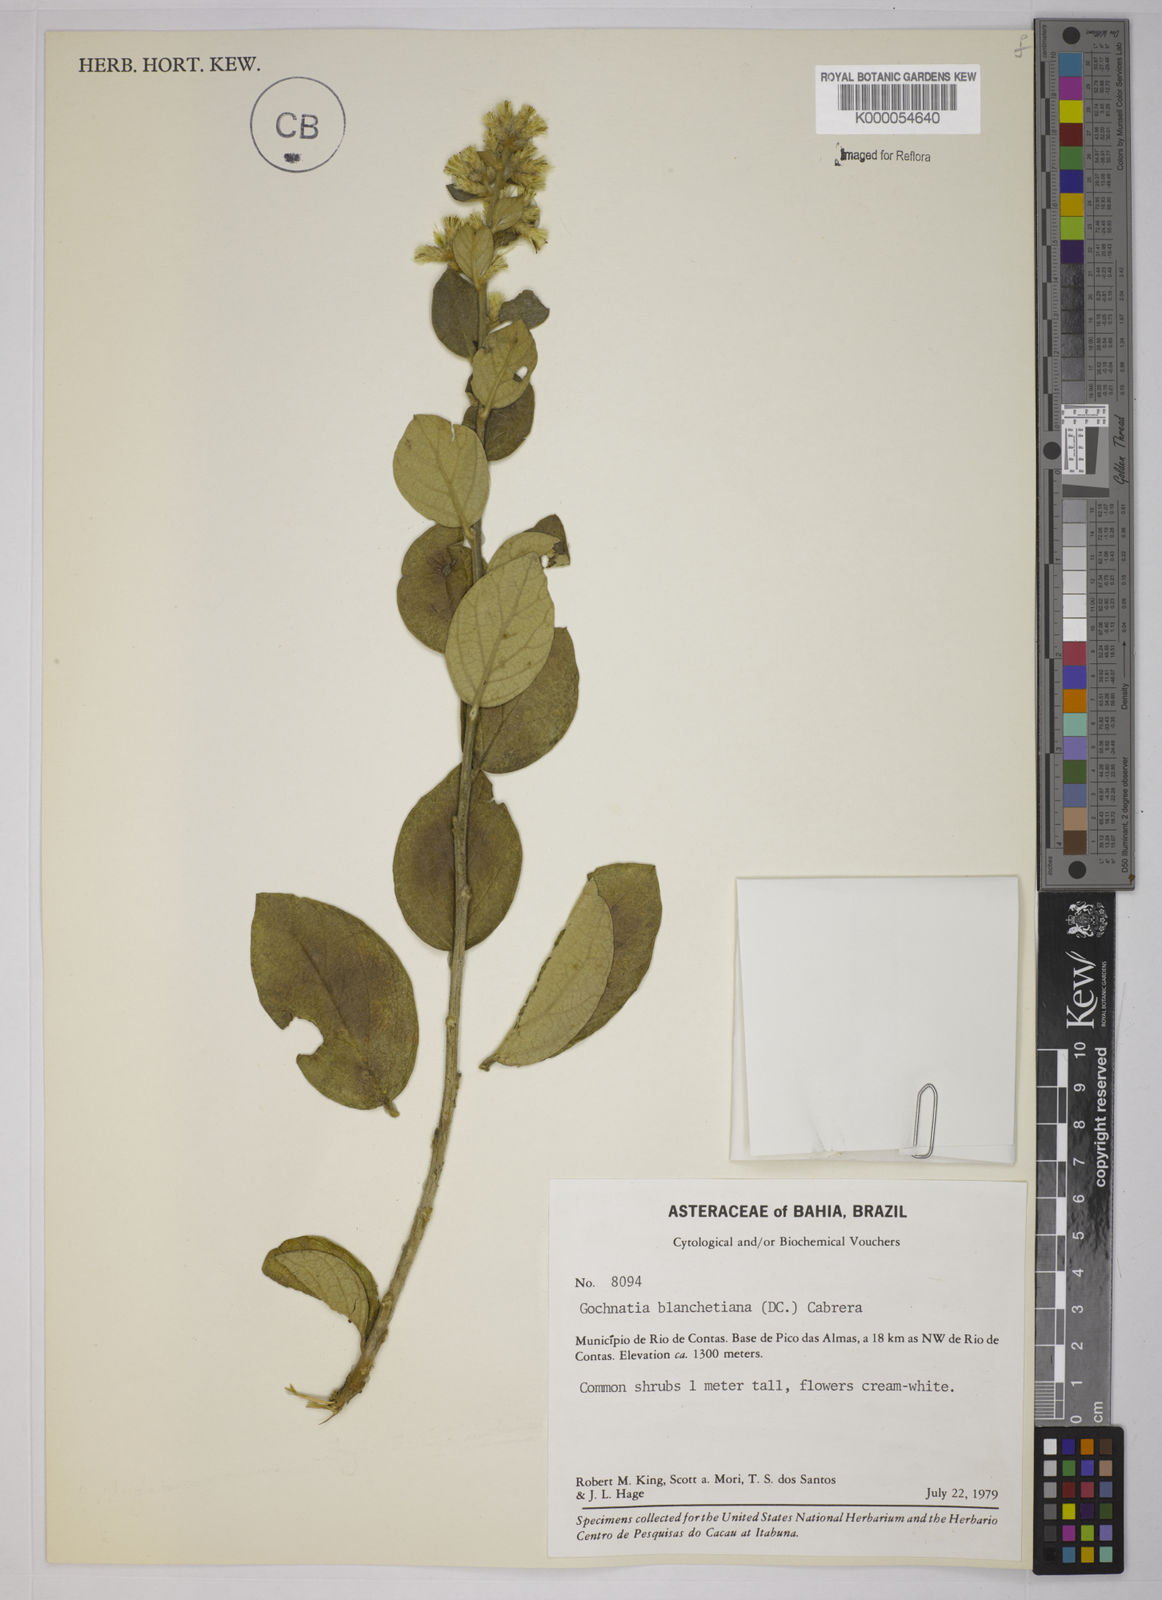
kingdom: Plantae
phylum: Tracheophyta
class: Magnoliopsida
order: Asterales
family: Asteraceae
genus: Moquiniastrum
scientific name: Moquiniastrum blanchetianum
